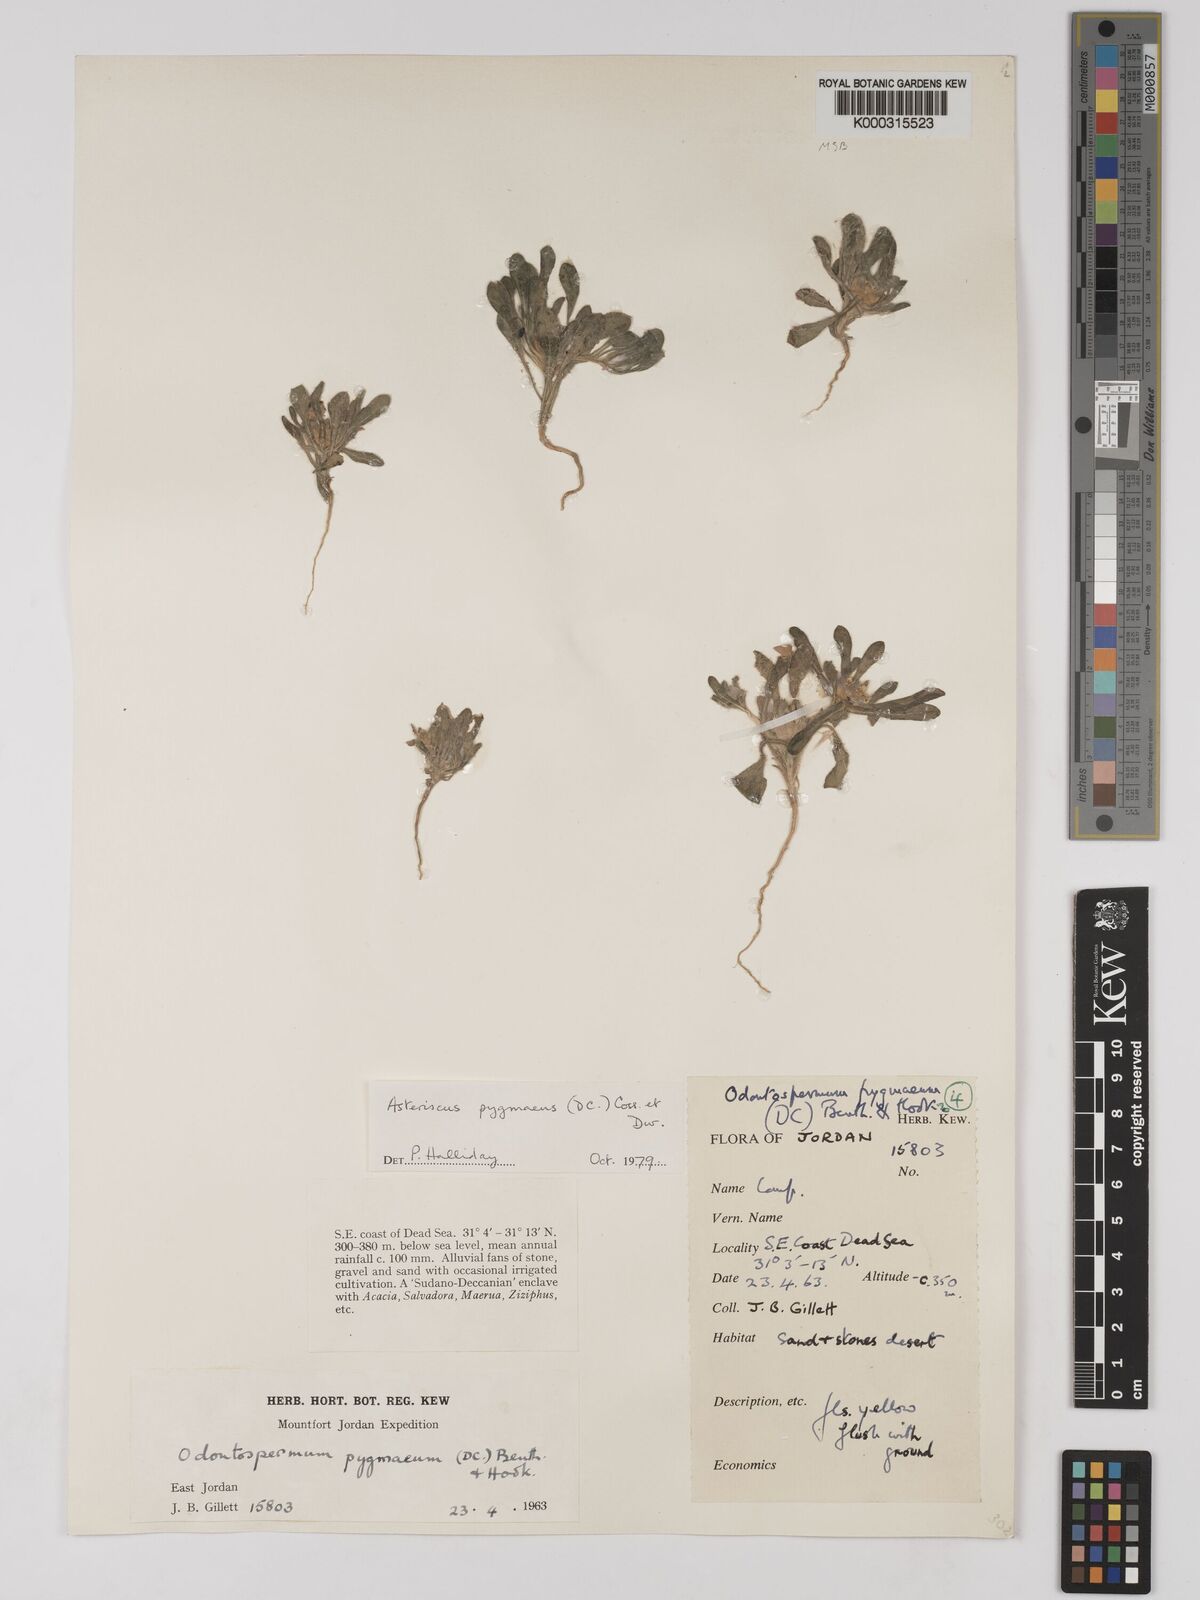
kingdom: Plantae
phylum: Tracheophyta
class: Magnoliopsida
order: Asterales
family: Asteraceae
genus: Pallenis
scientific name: Pallenis hierochuntica
